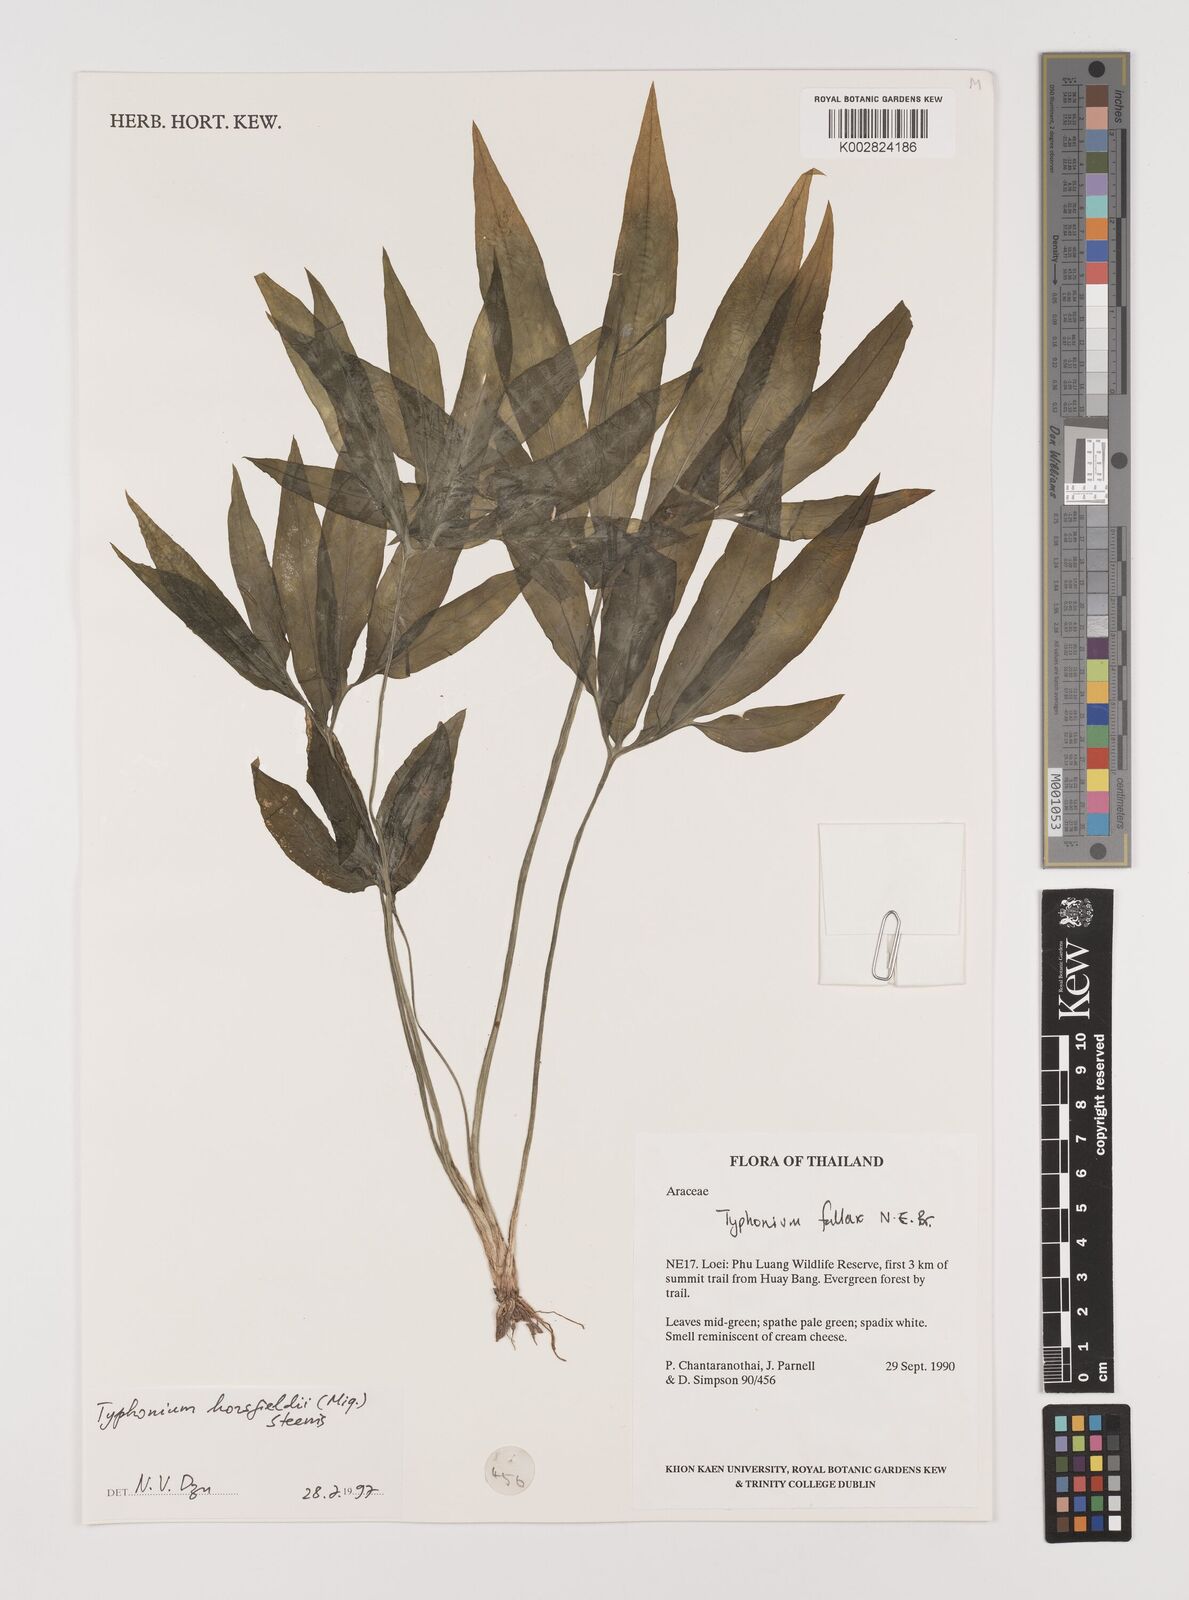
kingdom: Plantae
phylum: Tracheophyta
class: Liliopsida
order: Alismatales
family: Araceae
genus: Sauromatum
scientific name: Sauromatum horsfieldii
